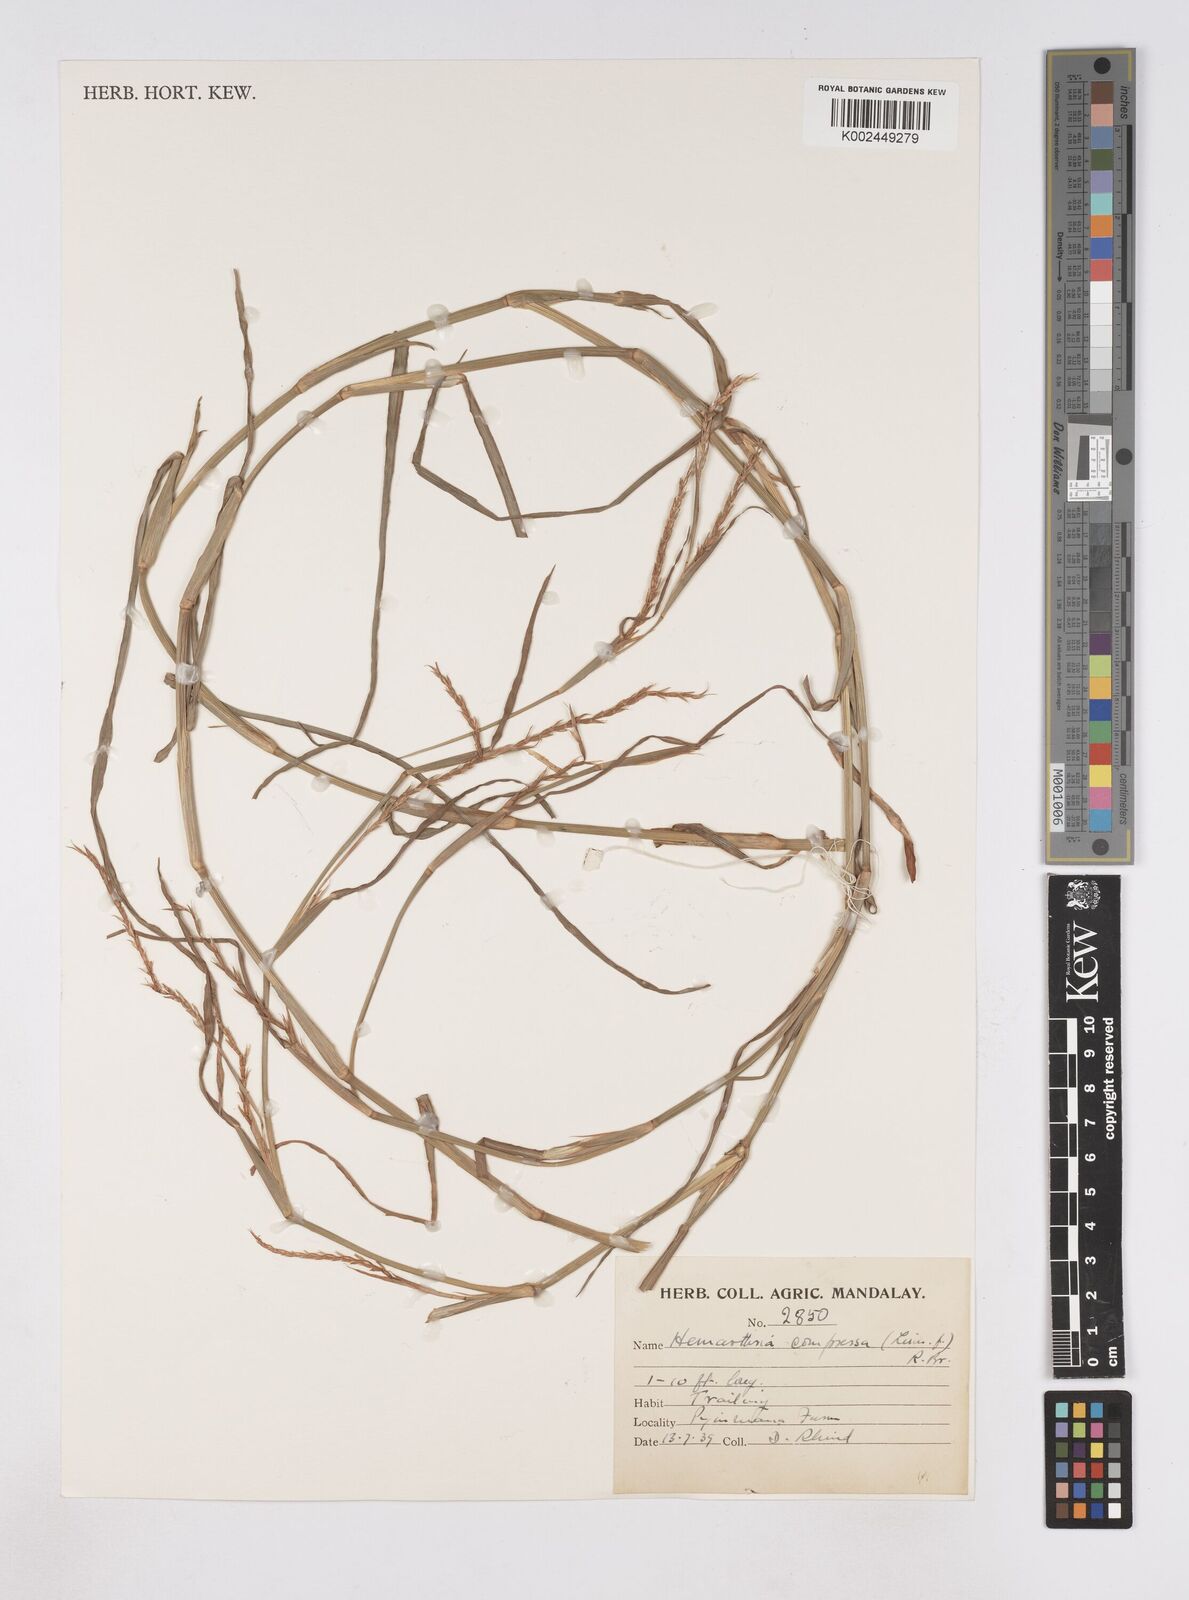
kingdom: Plantae
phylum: Tracheophyta
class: Liliopsida
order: Poales
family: Poaceae
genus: Hemarthria
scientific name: Hemarthria compressa
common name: Whip grass
